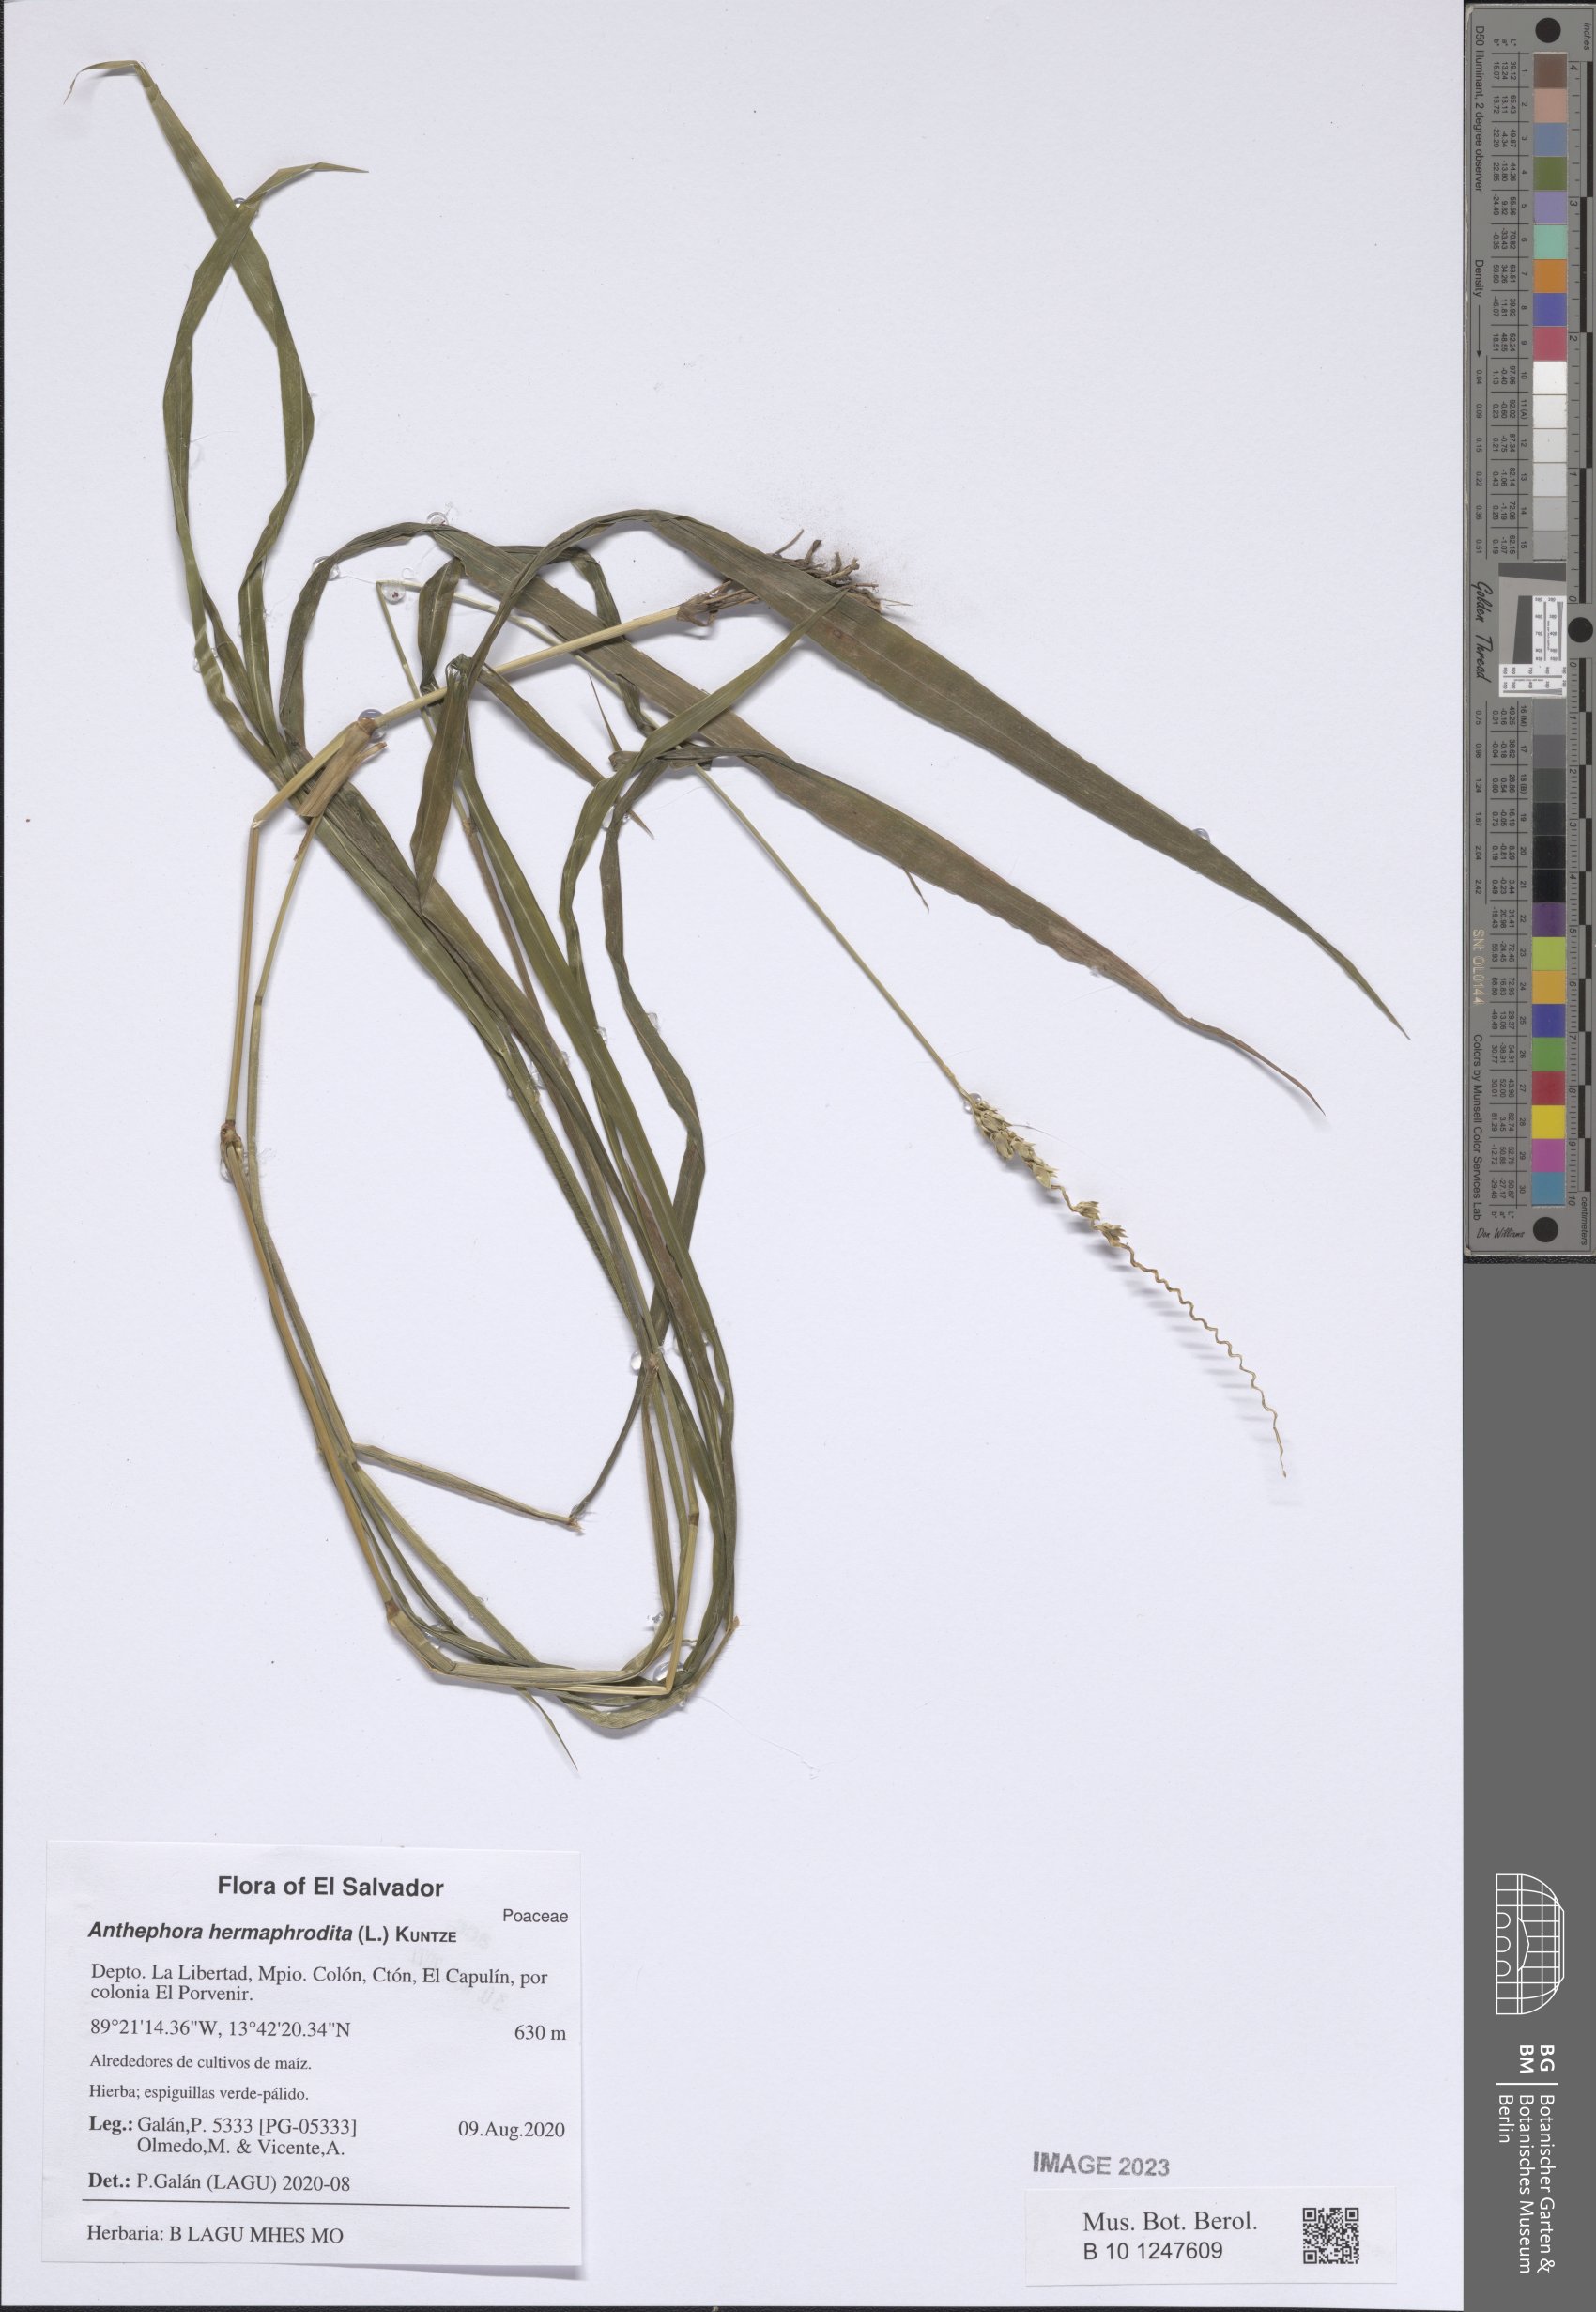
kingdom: Plantae
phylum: Tracheophyta
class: Liliopsida
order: Poales
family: Poaceae
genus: Anthephora
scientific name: Anthephora hermaphrodita
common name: Oldfield grass
